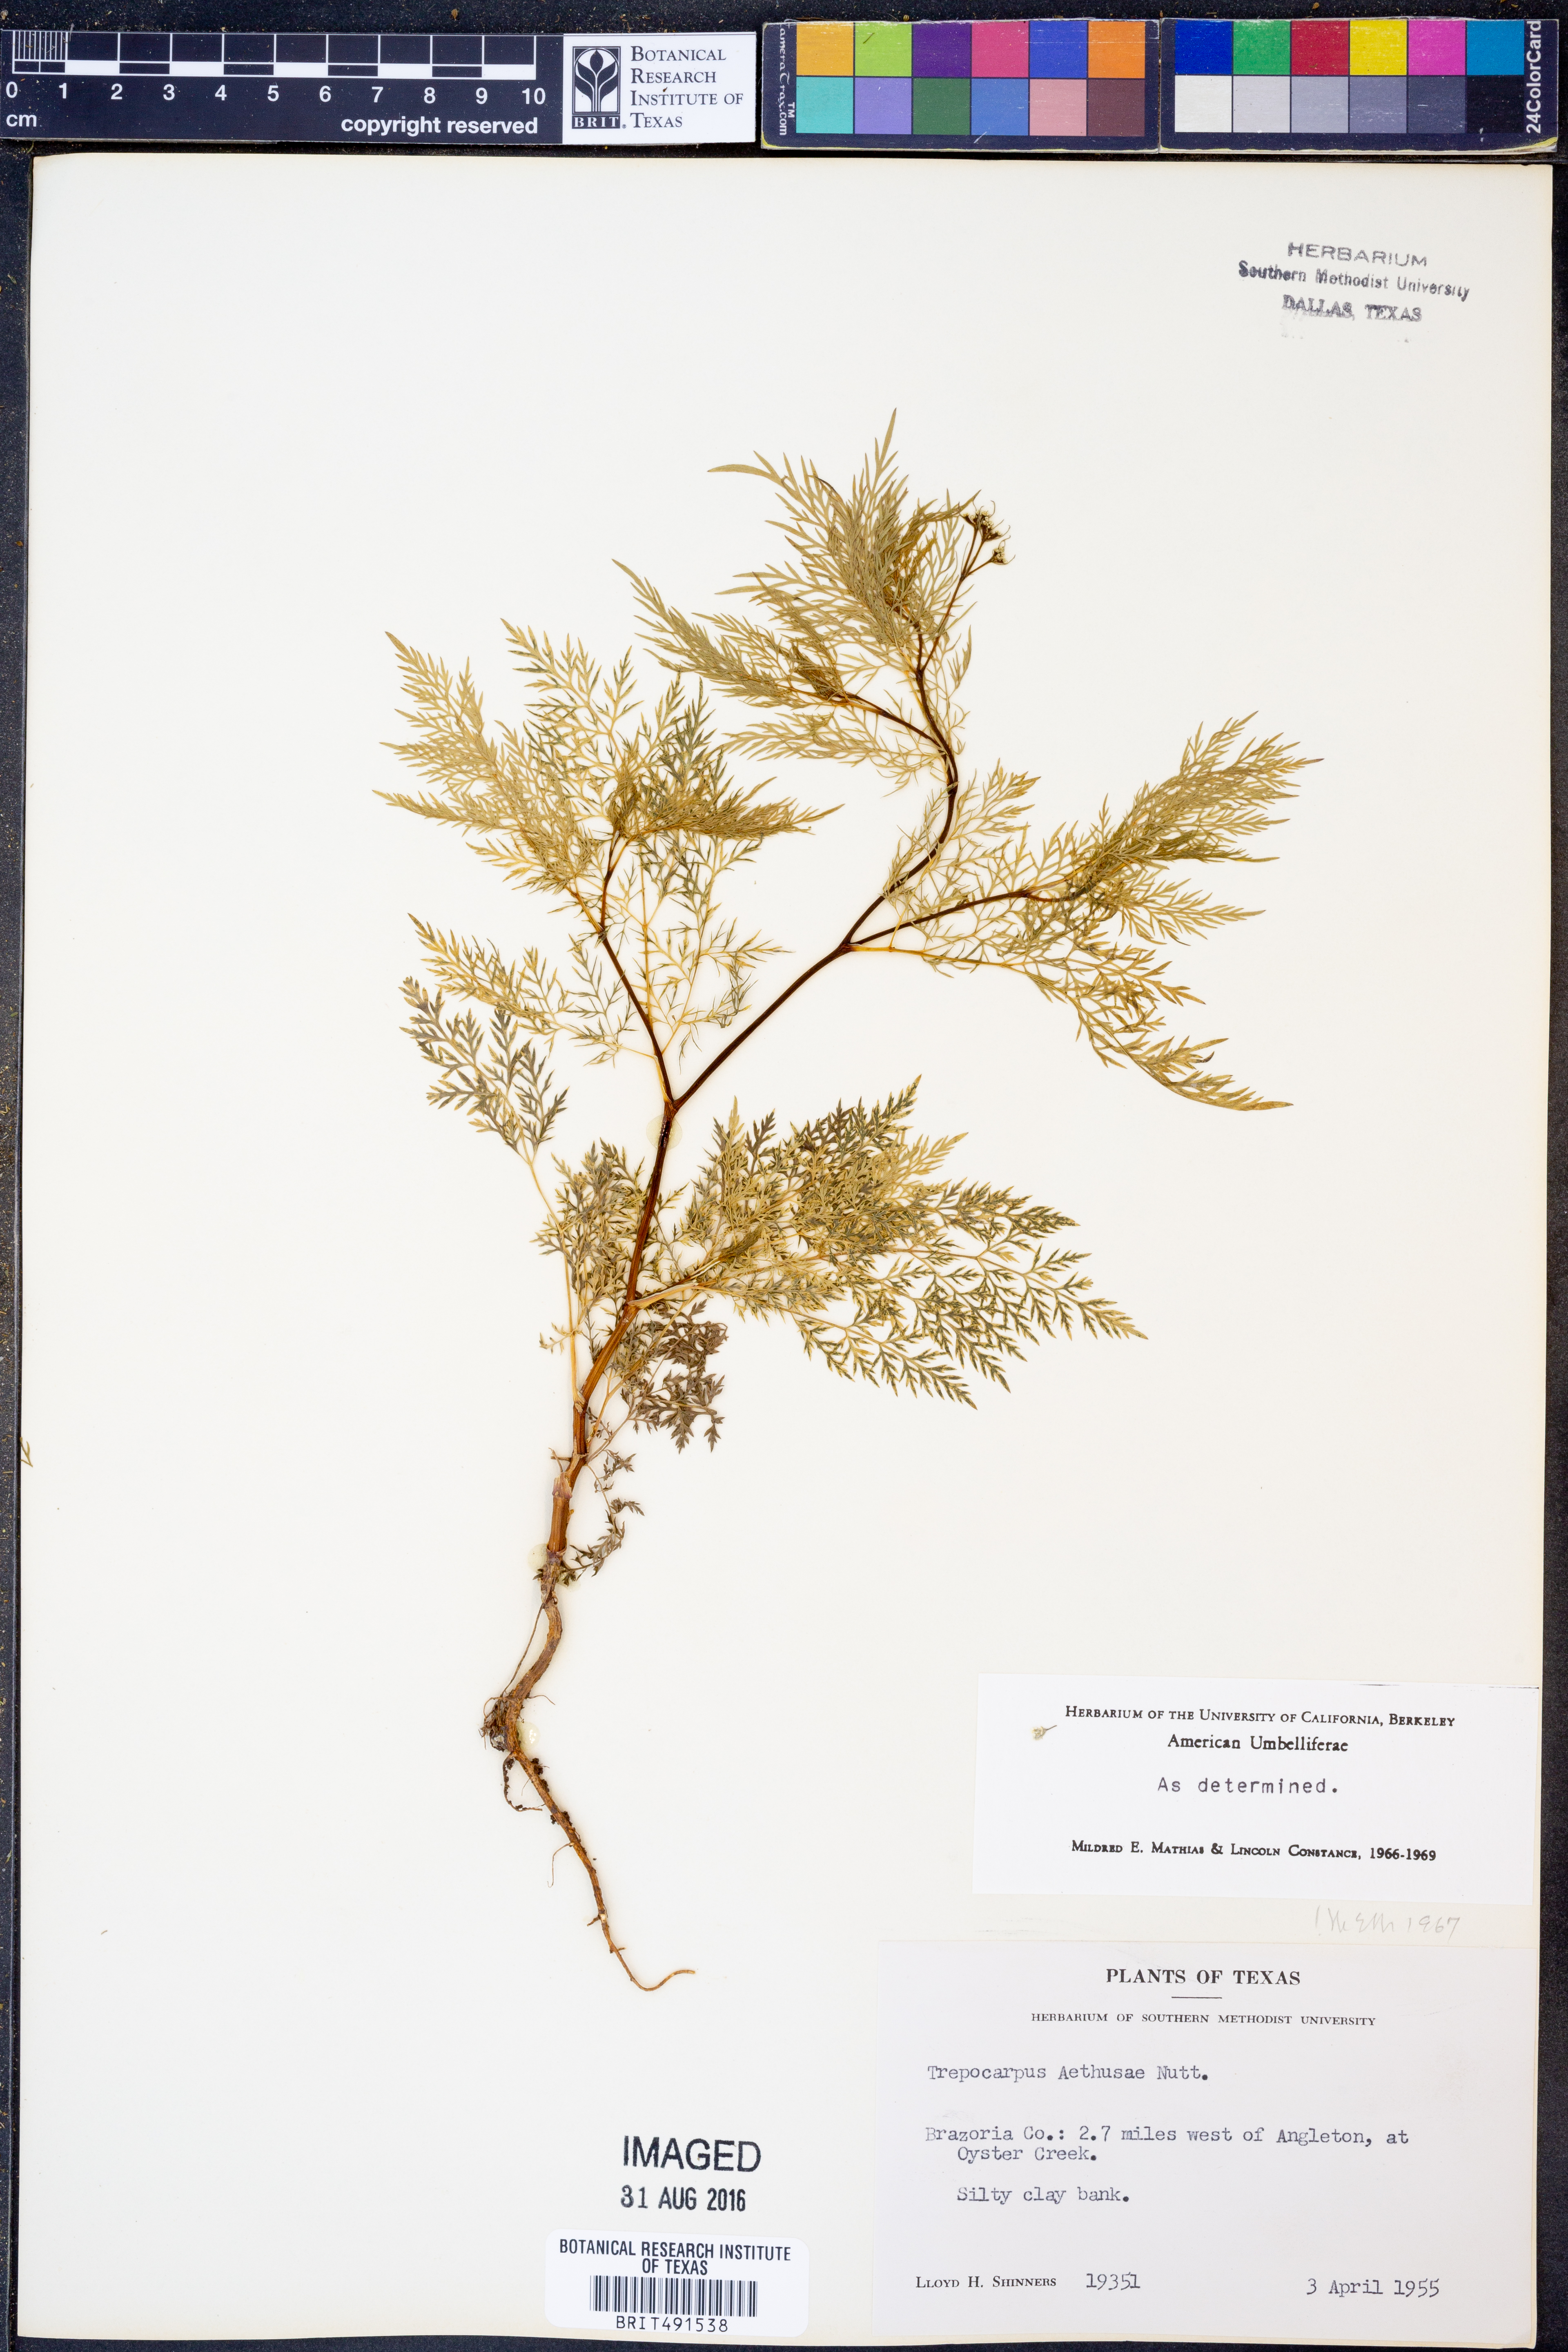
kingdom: Plantae
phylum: Tracheophyta
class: Magnoliopsida
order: Apiales
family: Apiaceae
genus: Trepocarpus
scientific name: Trepocarpus aethusae
